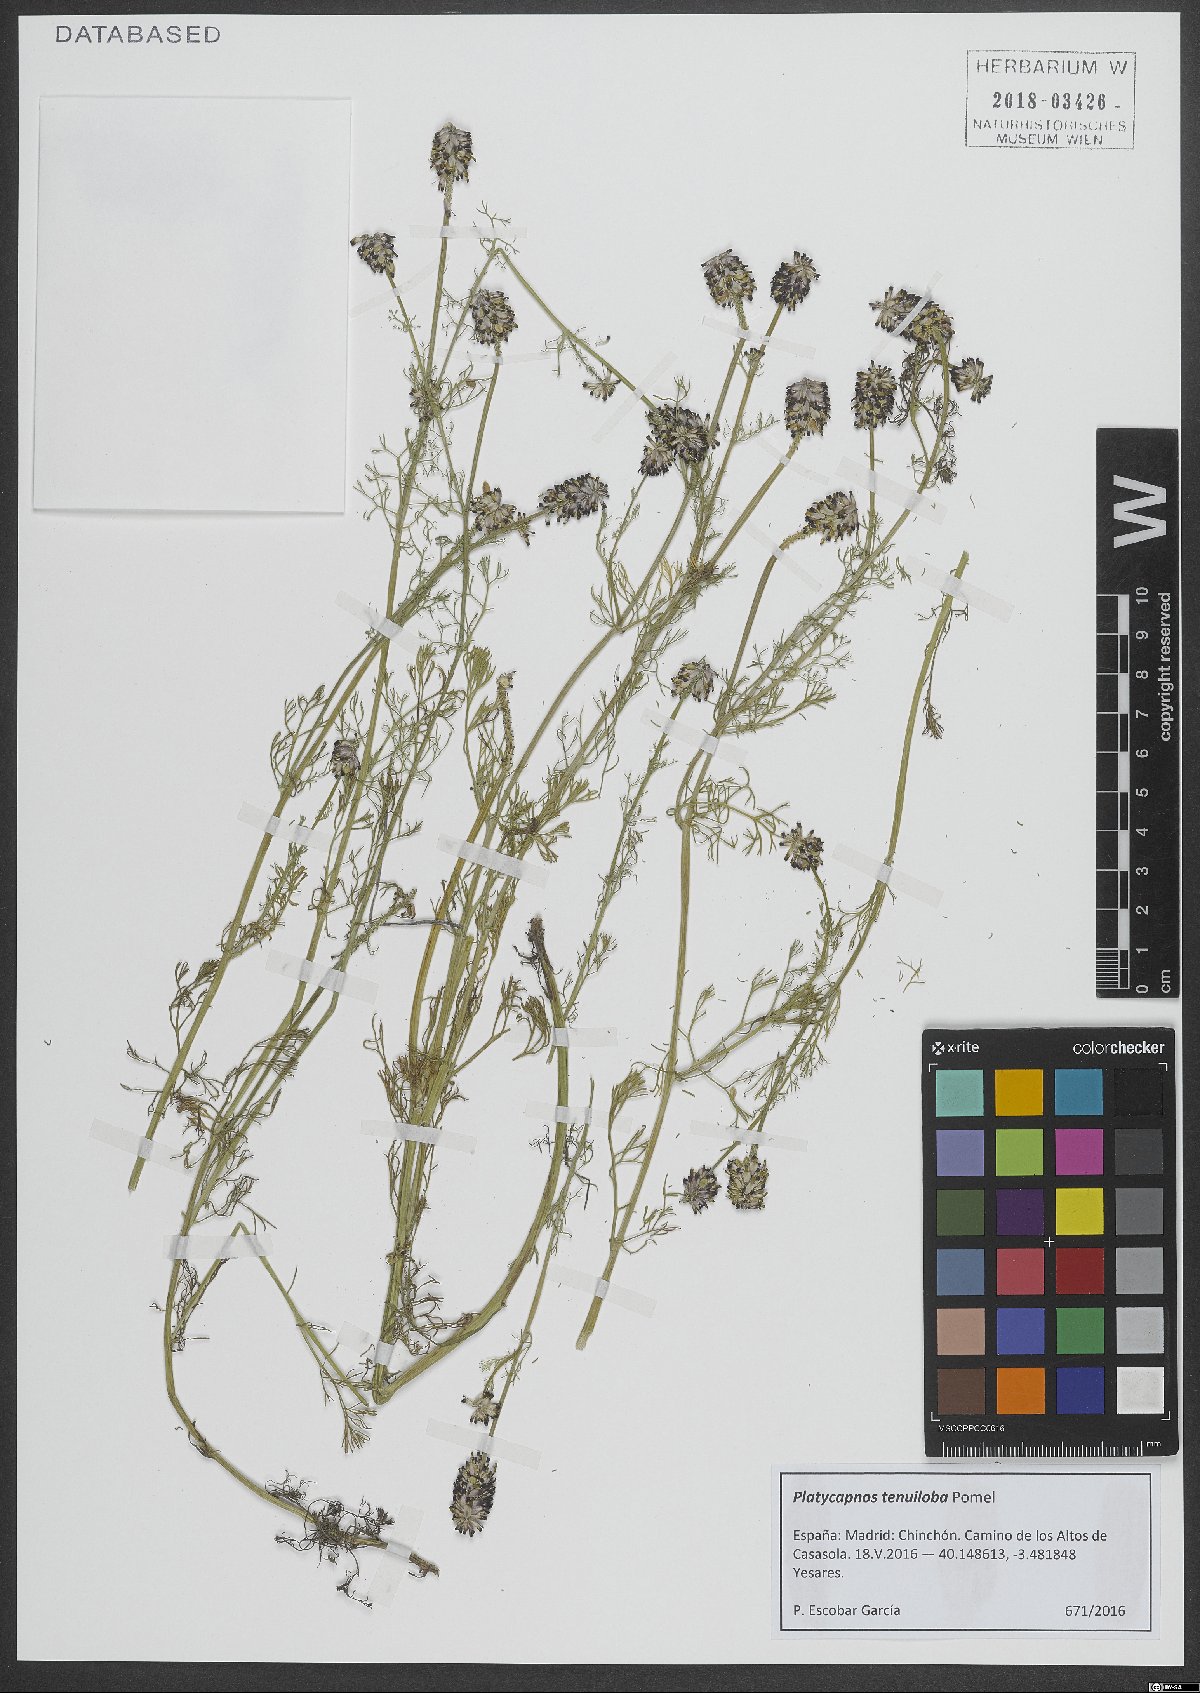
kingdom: Plantae
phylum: Tracheophyta
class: Magnoliopsida
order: Ranunculales
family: Papaveraceae
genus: Platycapnos
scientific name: Platycapnos tenuiloba
